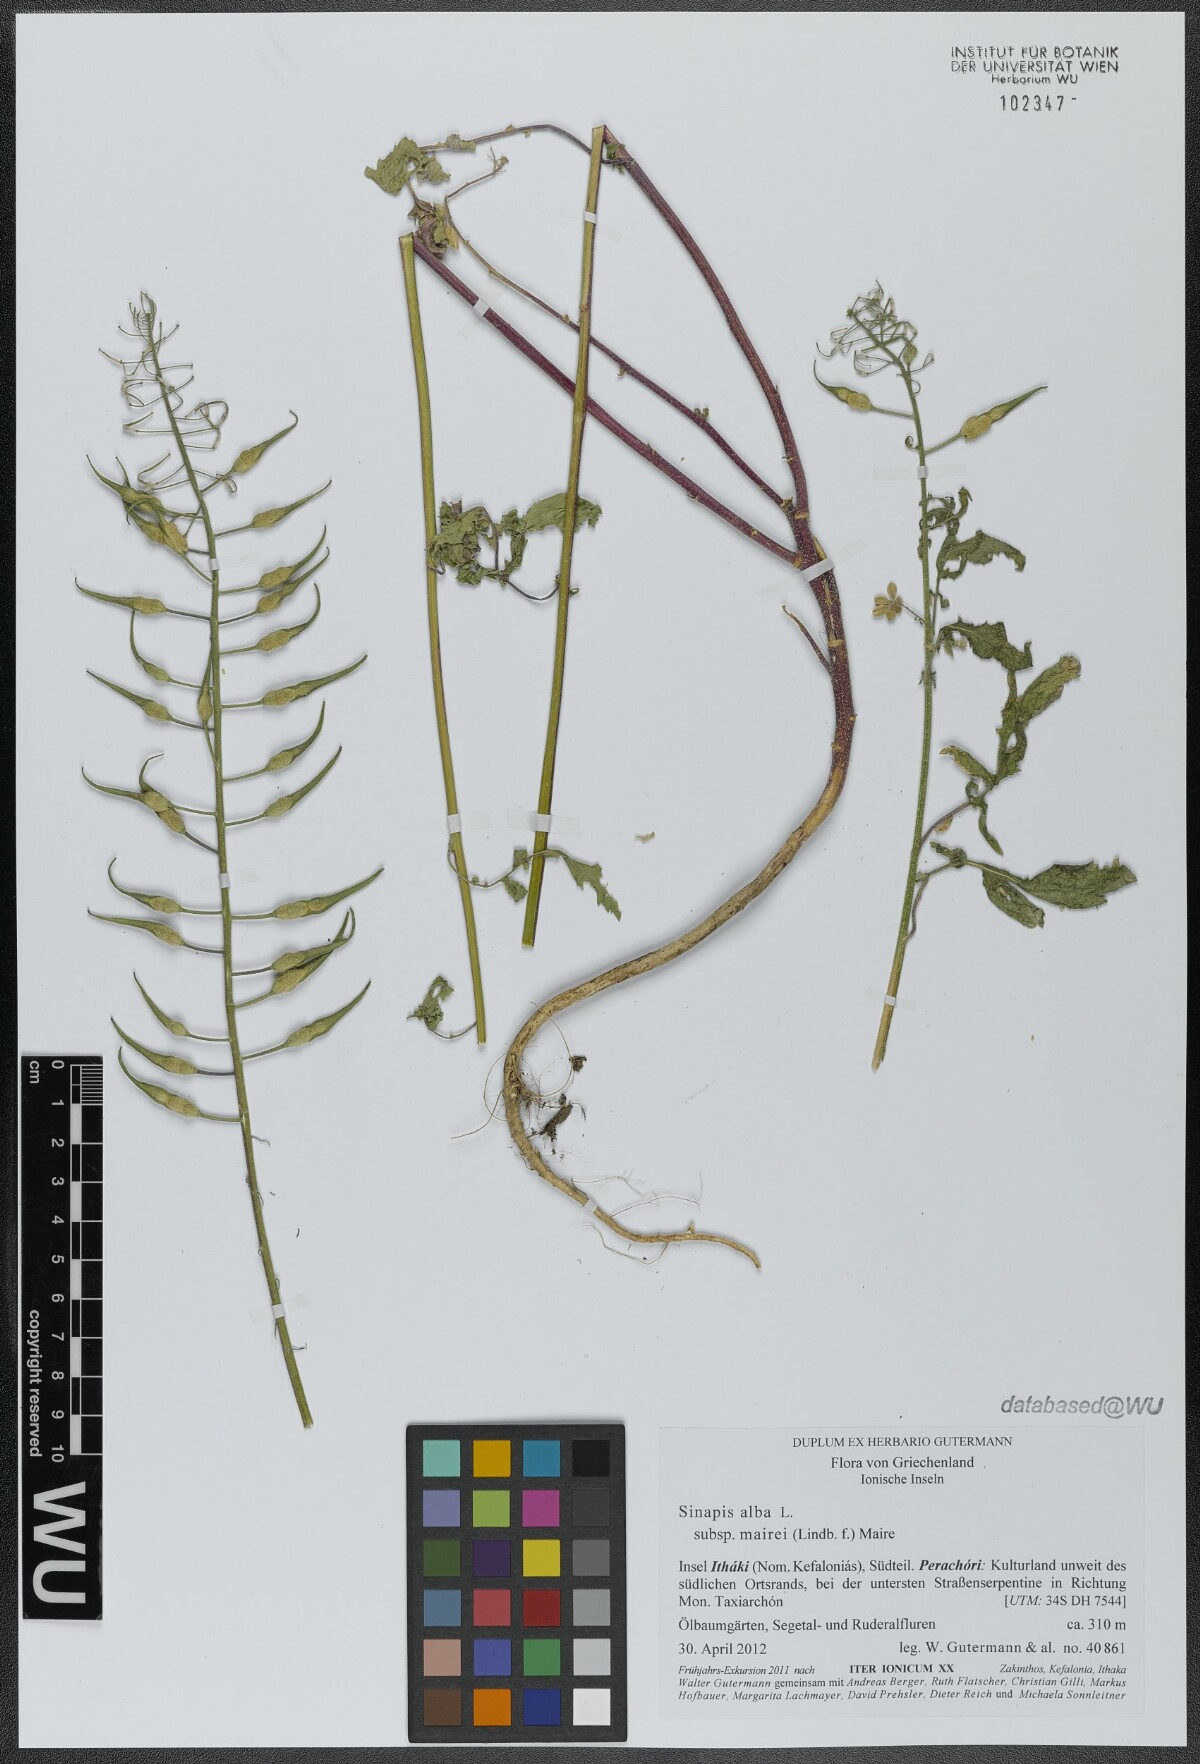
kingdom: Plantae
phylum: Tracheophyta
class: Magnoliopsida
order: Brassicales
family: Brassicaceae
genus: Sinapis
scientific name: Sinapis alba
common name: White mustard
